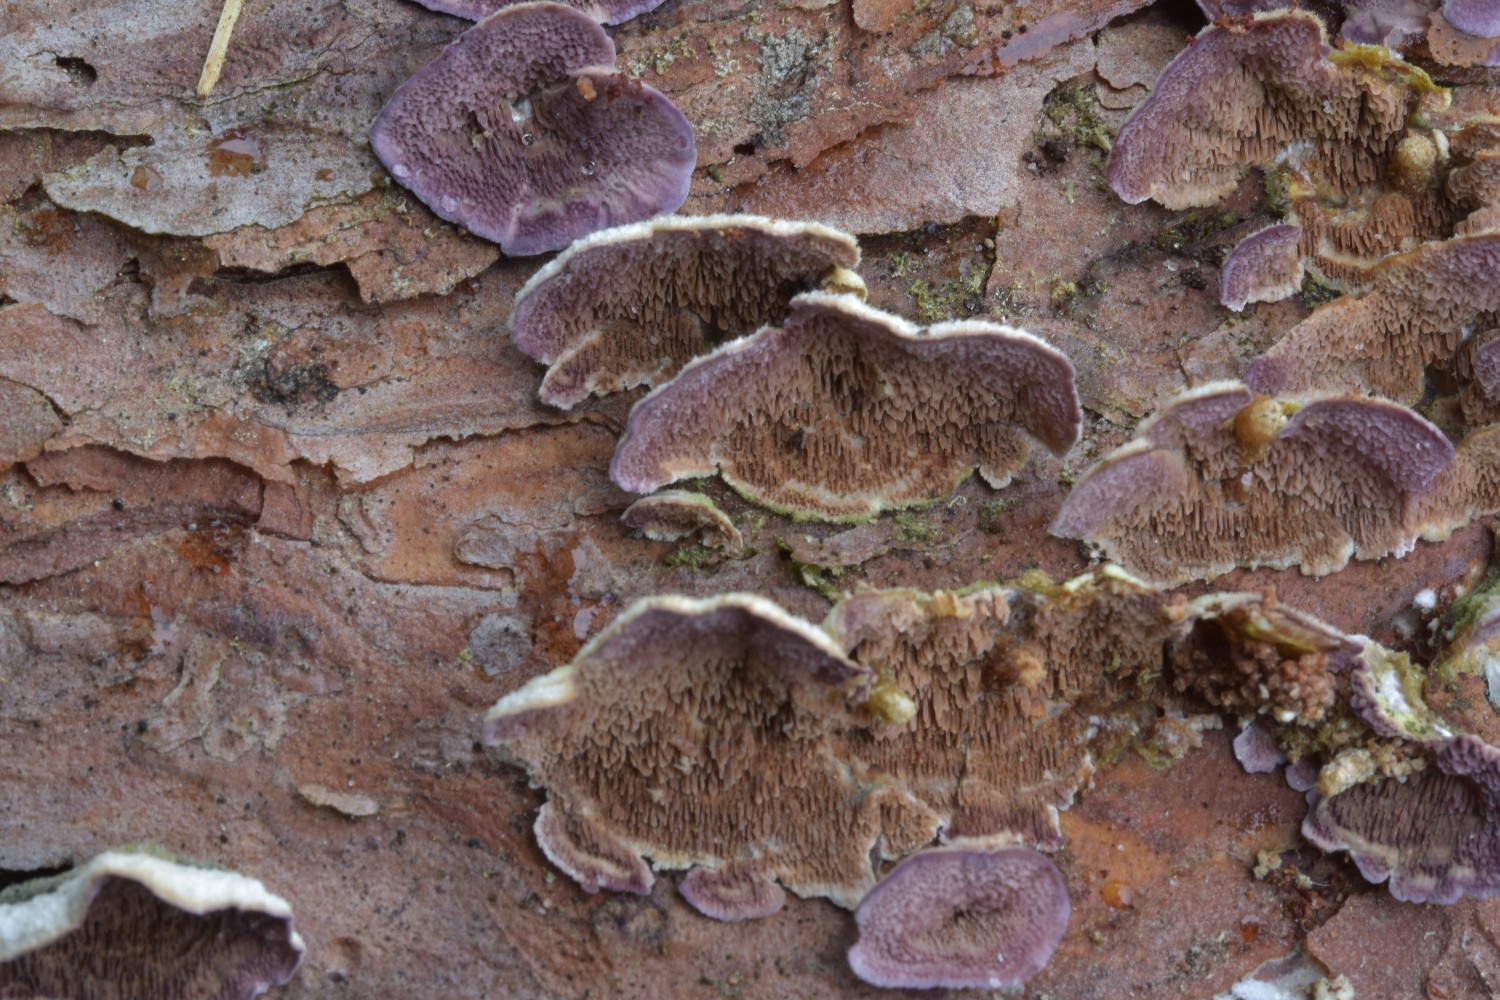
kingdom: Fungi
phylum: Basidiomycota
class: Agaricomycetes
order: Hymenochaetales
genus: Trichaptum
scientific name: Trichaptum fuscoviolaceum
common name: tandet violporesvamp
